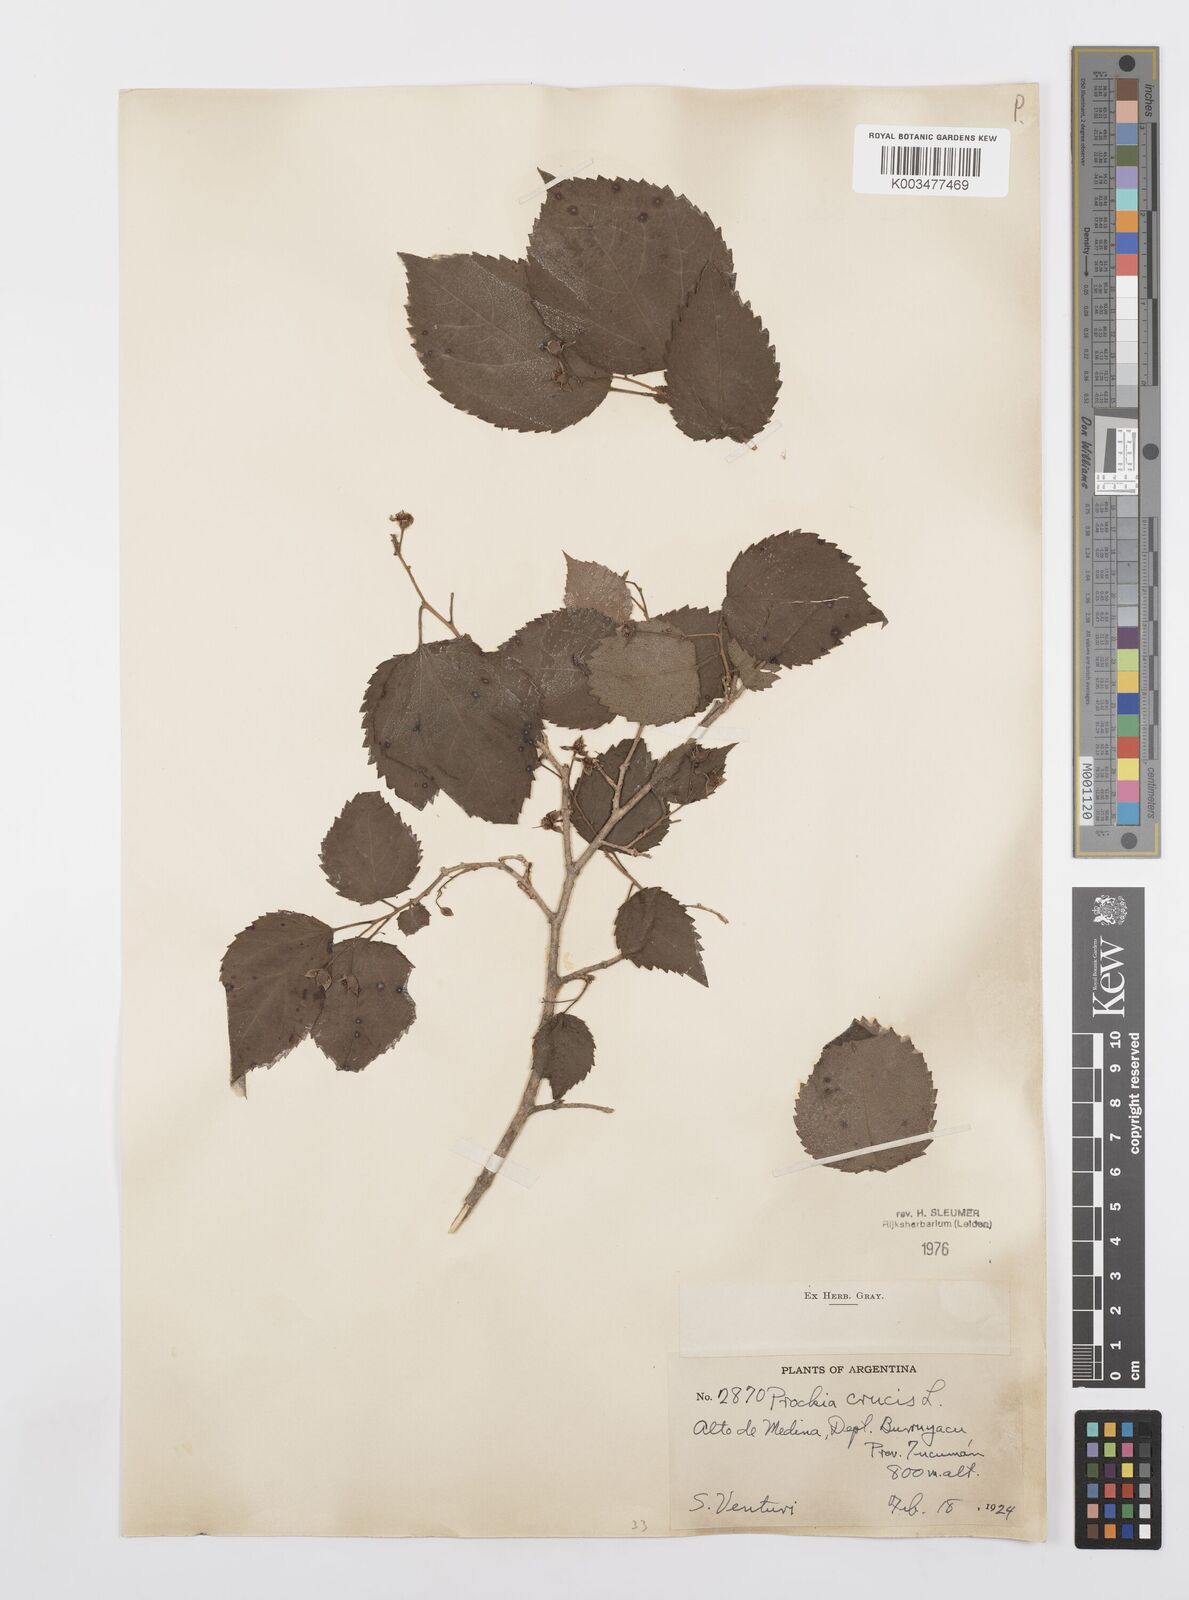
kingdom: Plantae
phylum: Tracheophyta
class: Magnoliopsida
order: Malpighiales
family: Salicaceae
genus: Prockia
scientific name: Prockia crucis
